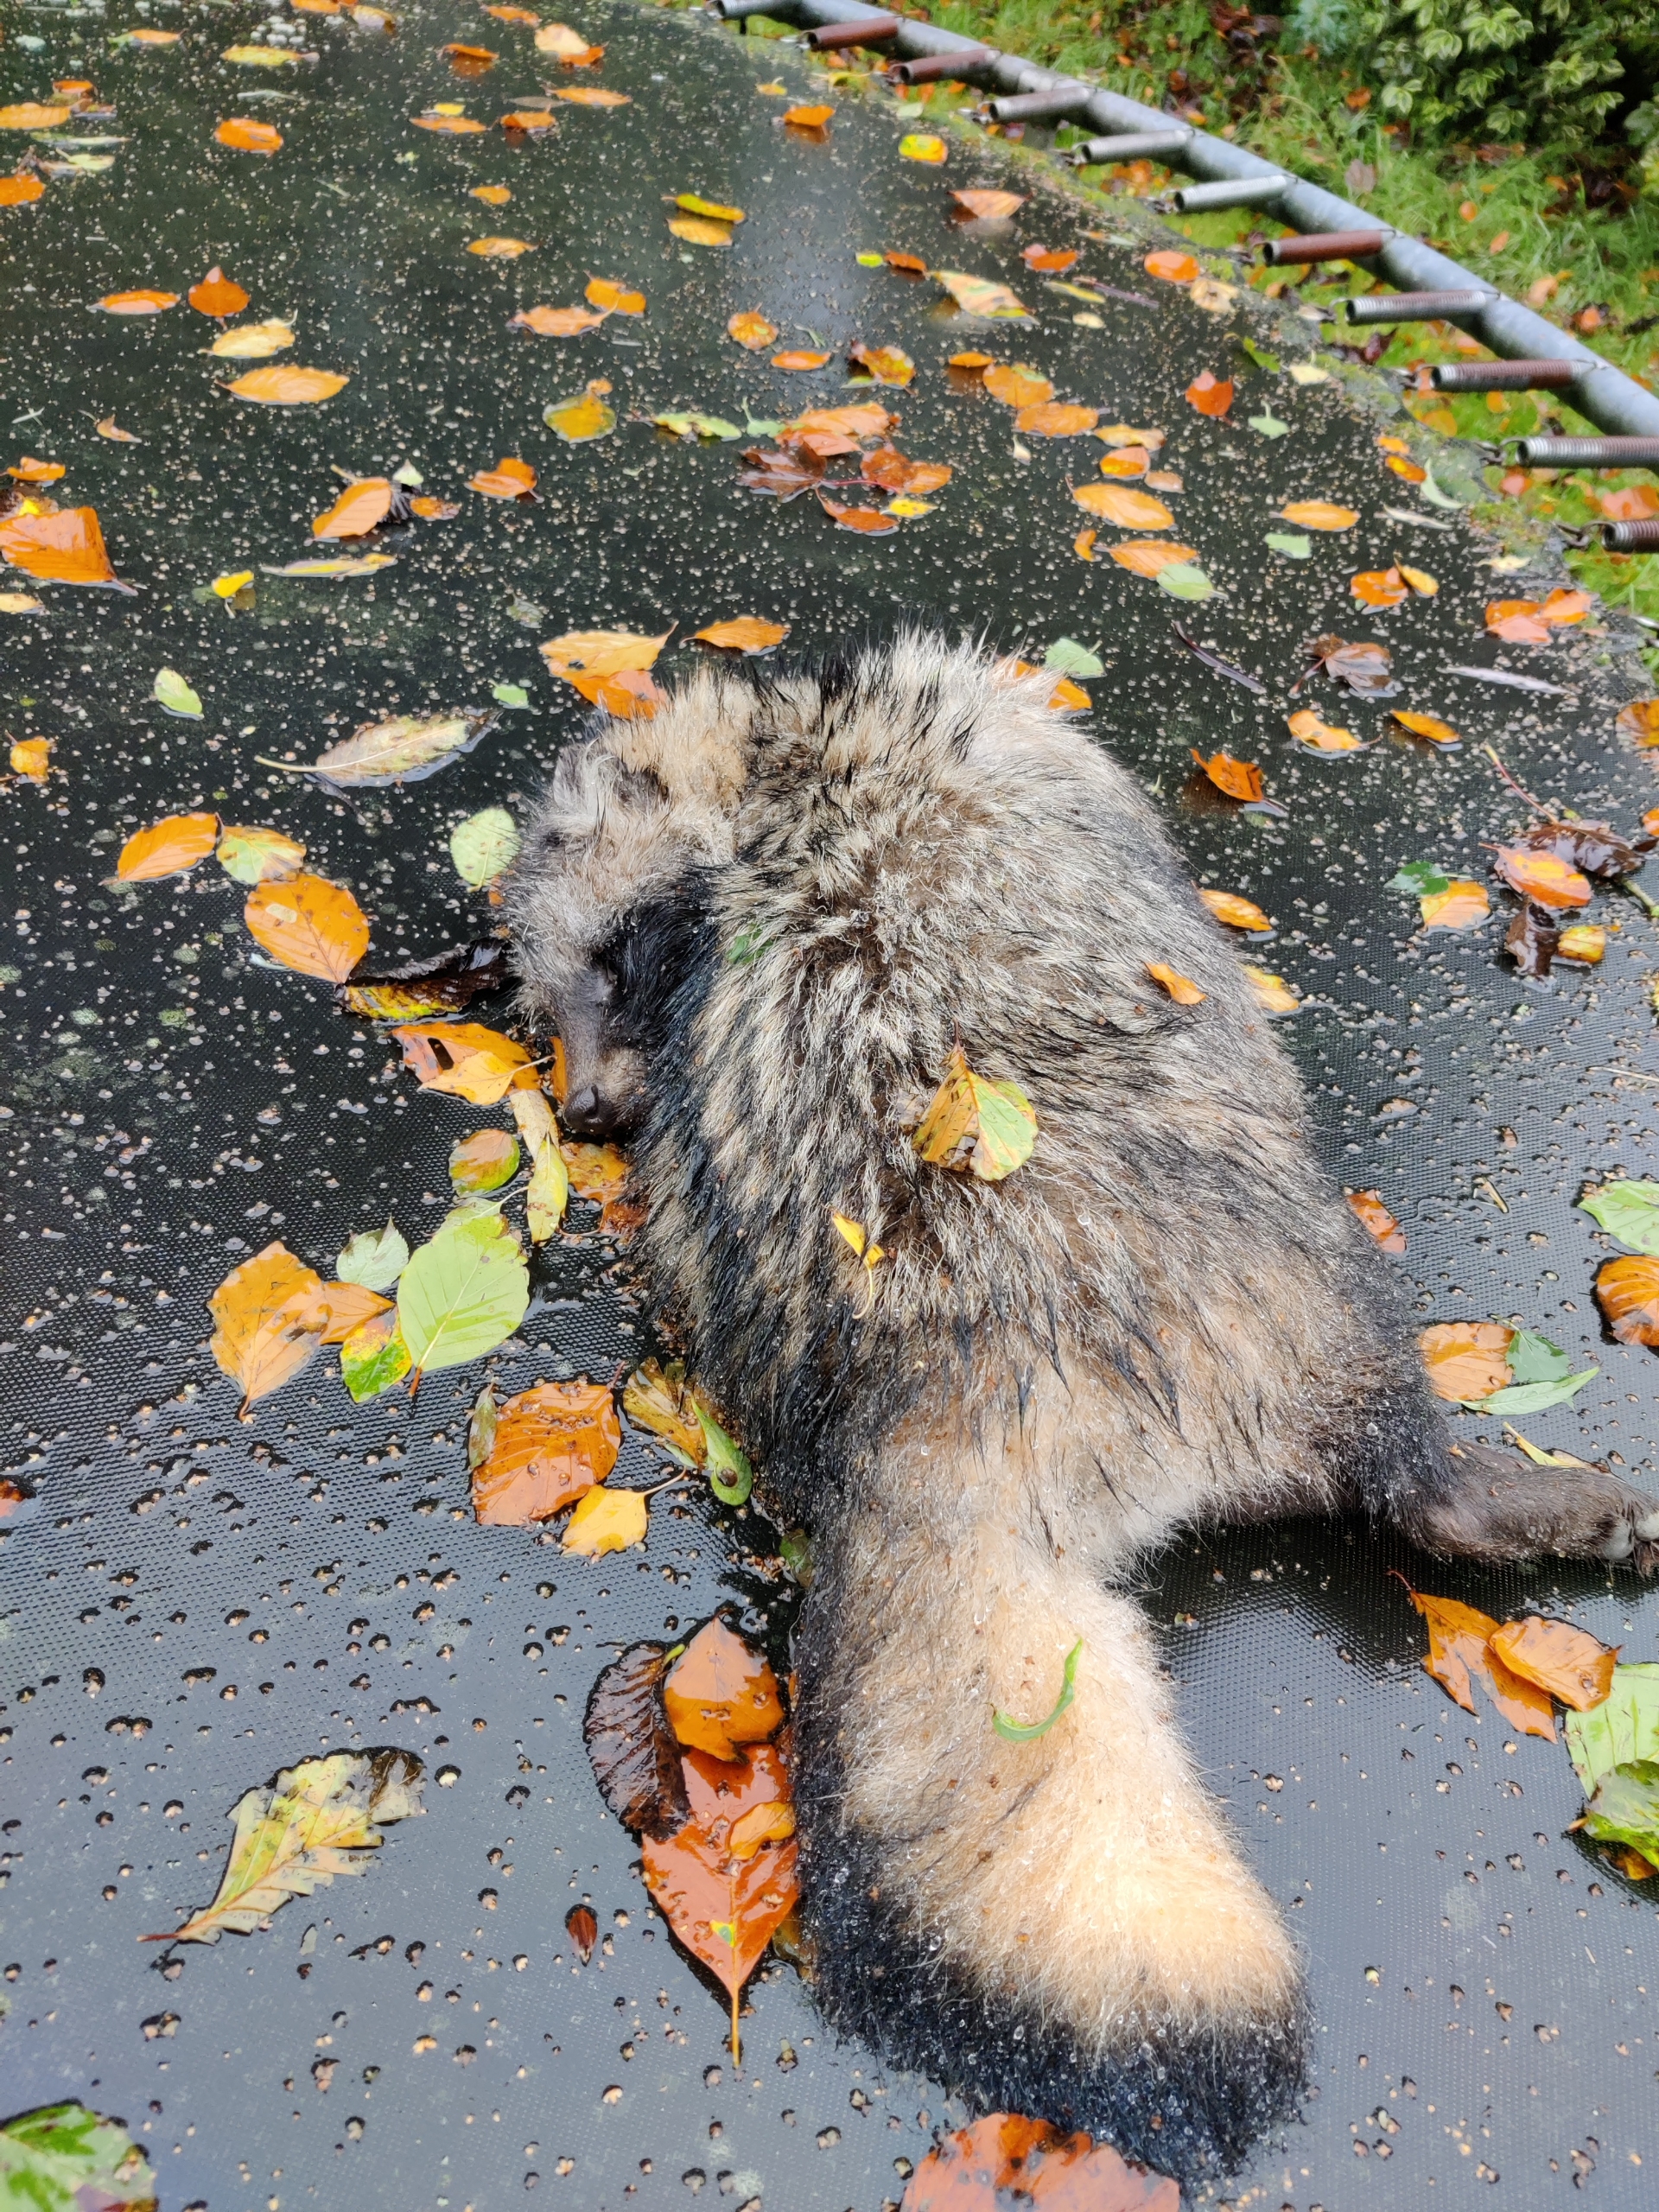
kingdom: Animalia
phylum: Chordata
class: Mammalia
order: Carnivora
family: Canidae
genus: Nyctereutes
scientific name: Nyctereutes procyonoides
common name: Mårhund
